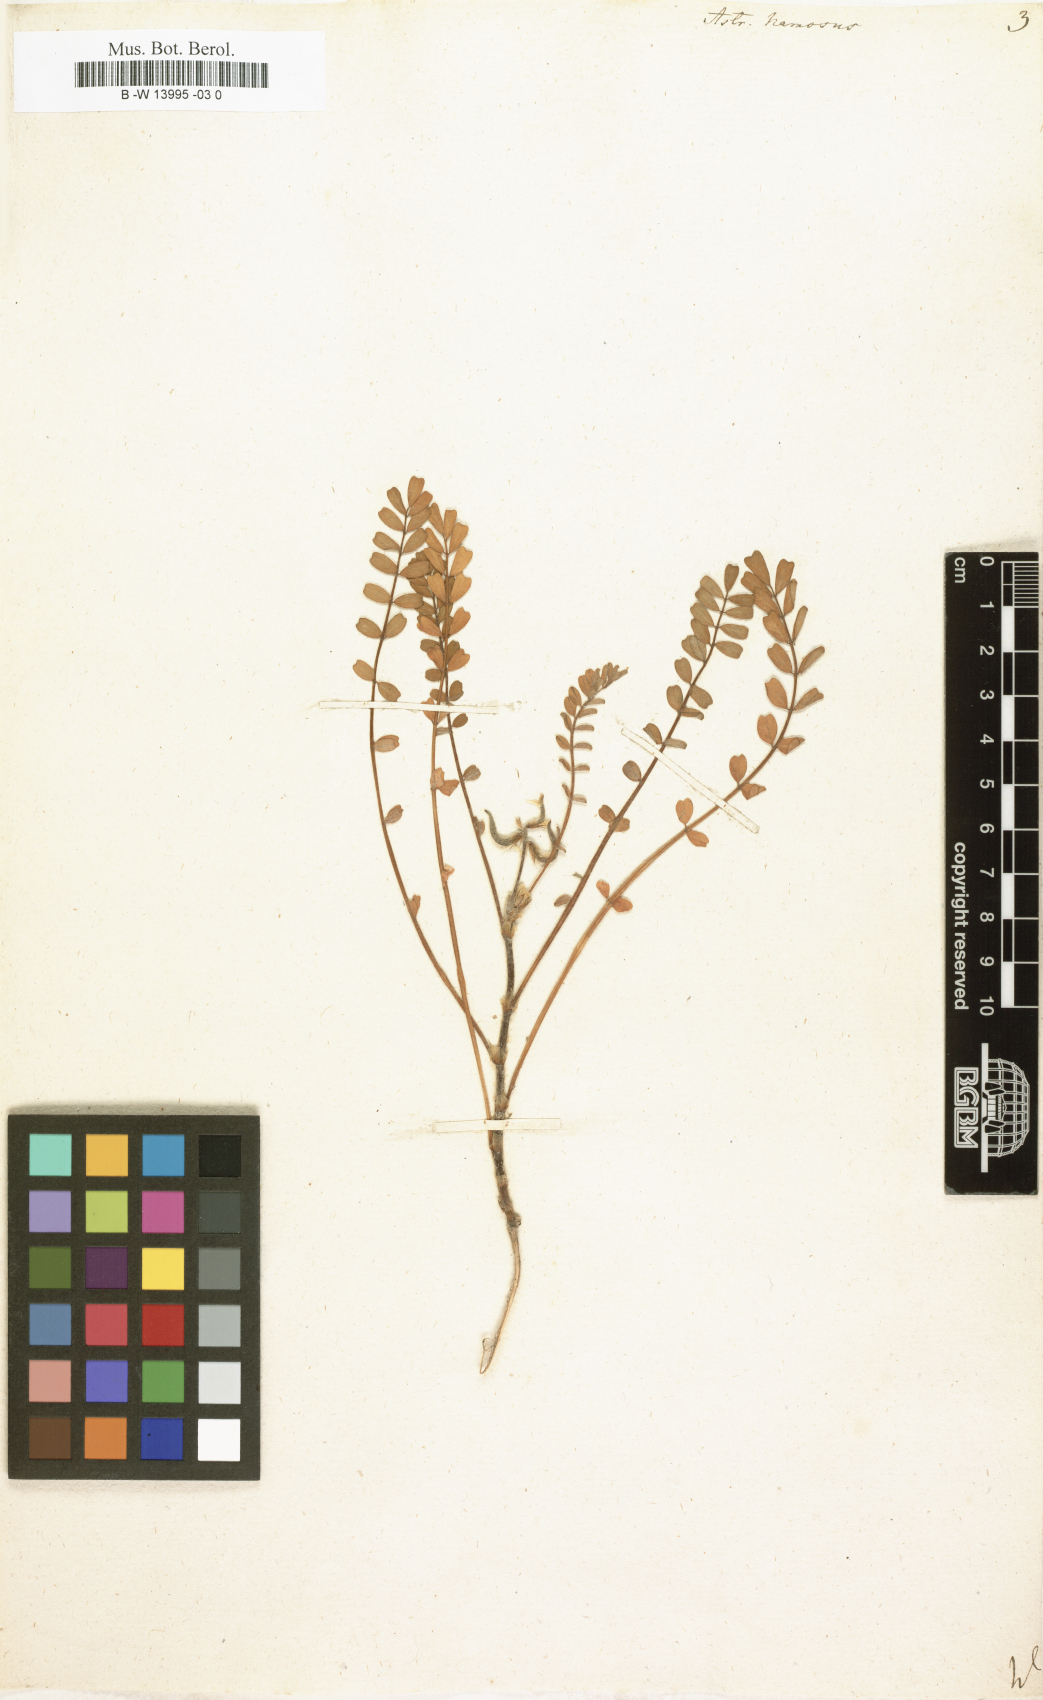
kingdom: Plantae
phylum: Tracheophyta
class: Magnoliopsida
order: Fabales
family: Fabaceae
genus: Astragalus
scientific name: Astragalus hamosus
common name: European milkvetch
